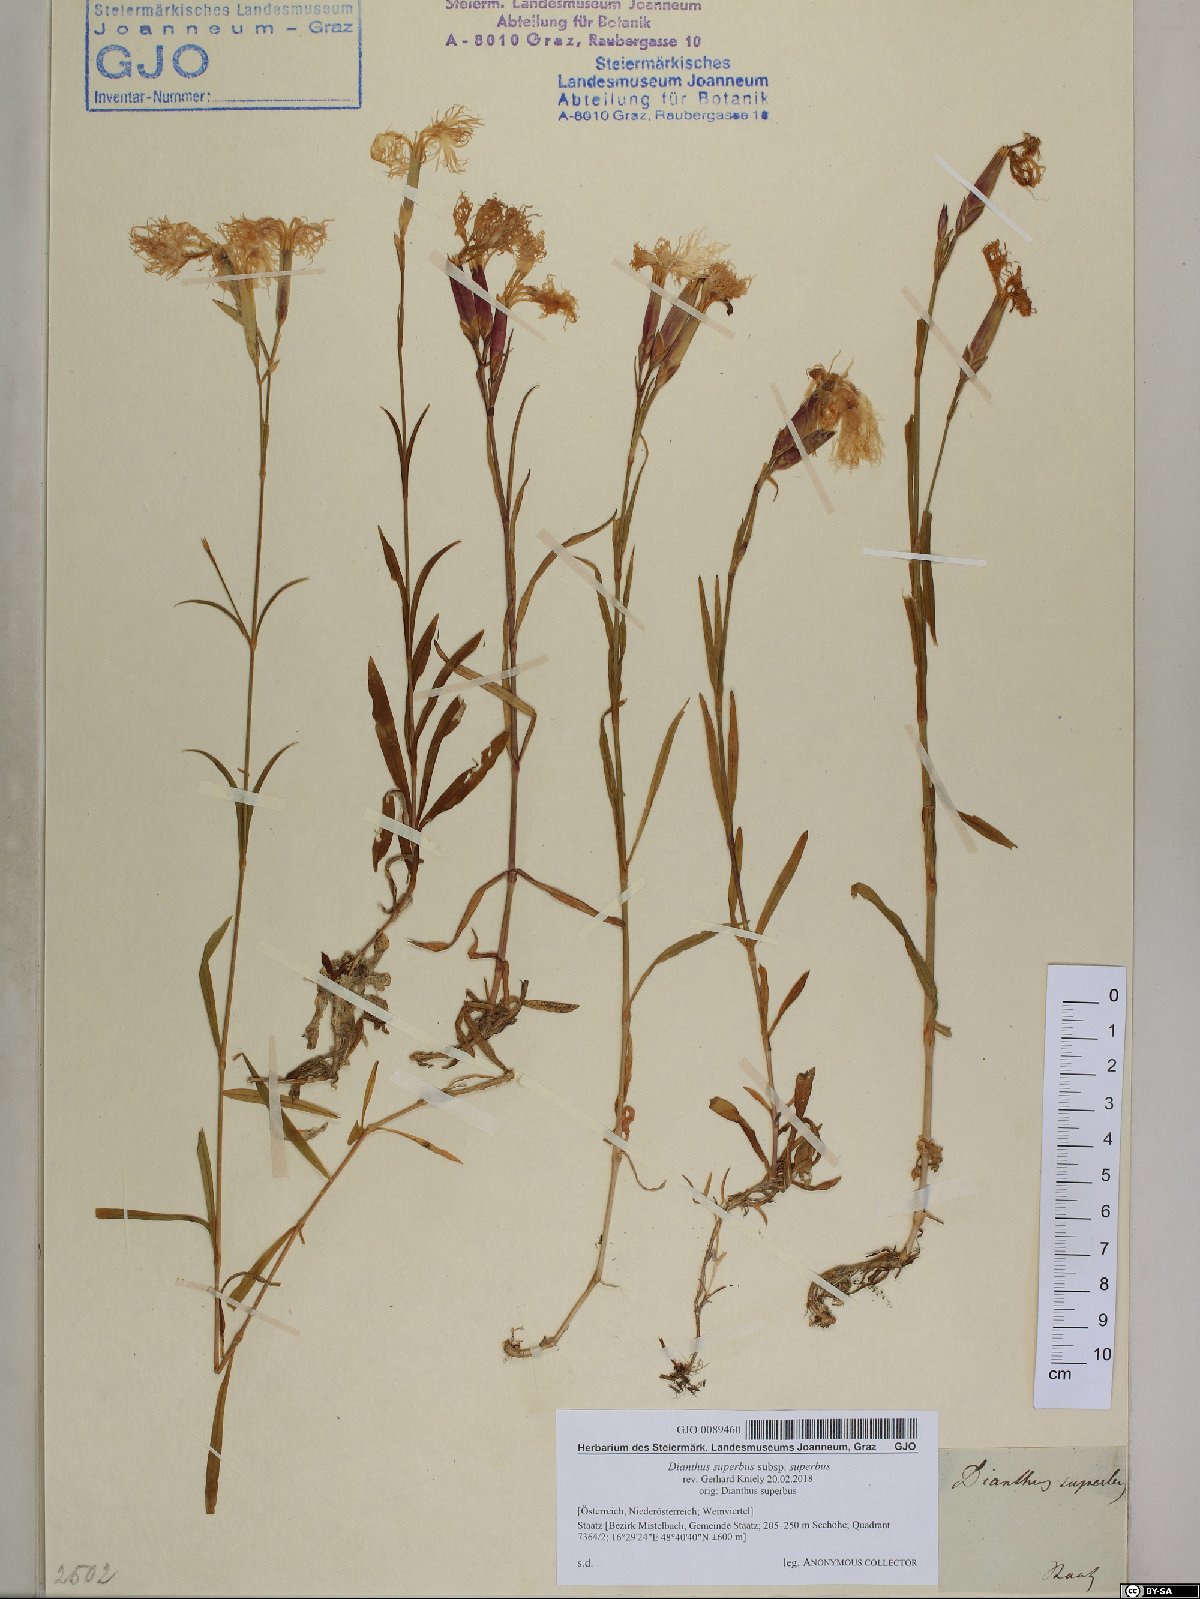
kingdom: Plantae
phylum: Tracheophyta
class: Magnoliopsida
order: Caryophyllales
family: Caryophyllaceae
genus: Dianthus
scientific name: Dianthus superbus
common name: Fringed pink
